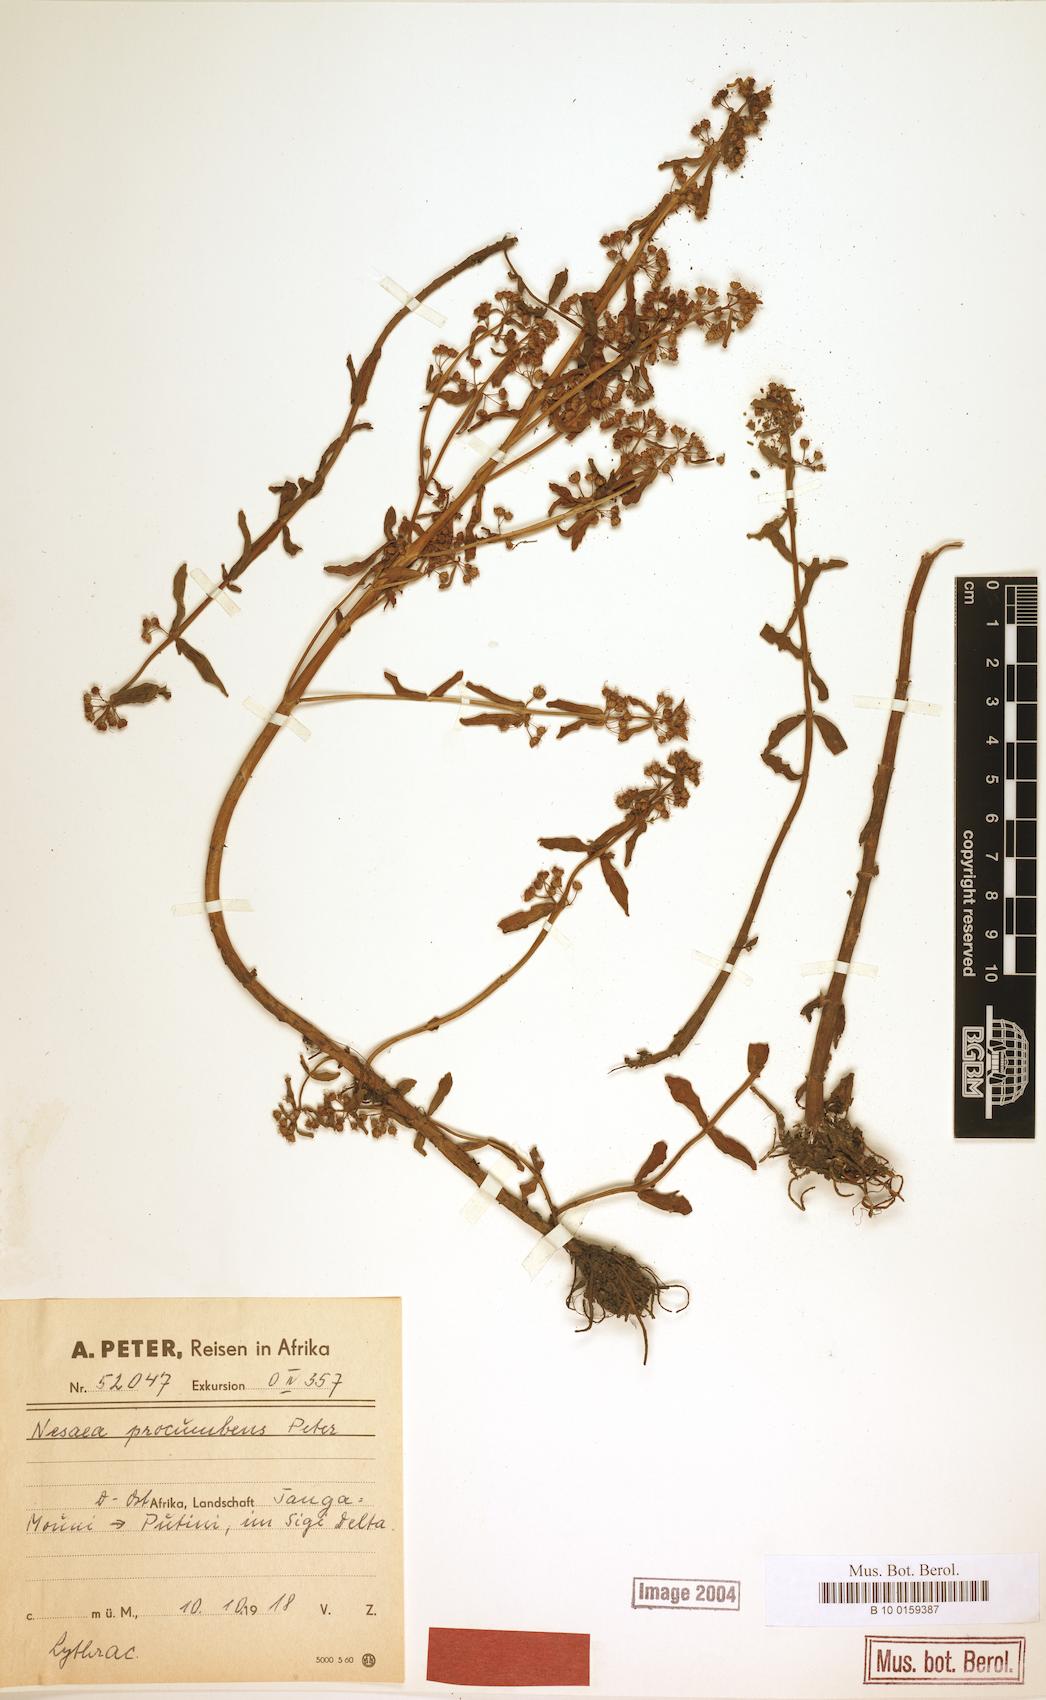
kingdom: Plantae
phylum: Tracheophyta
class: Magnoliopsida
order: Myrtales
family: Lythraceae
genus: Ammannia
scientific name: Ammannia pedicellata
